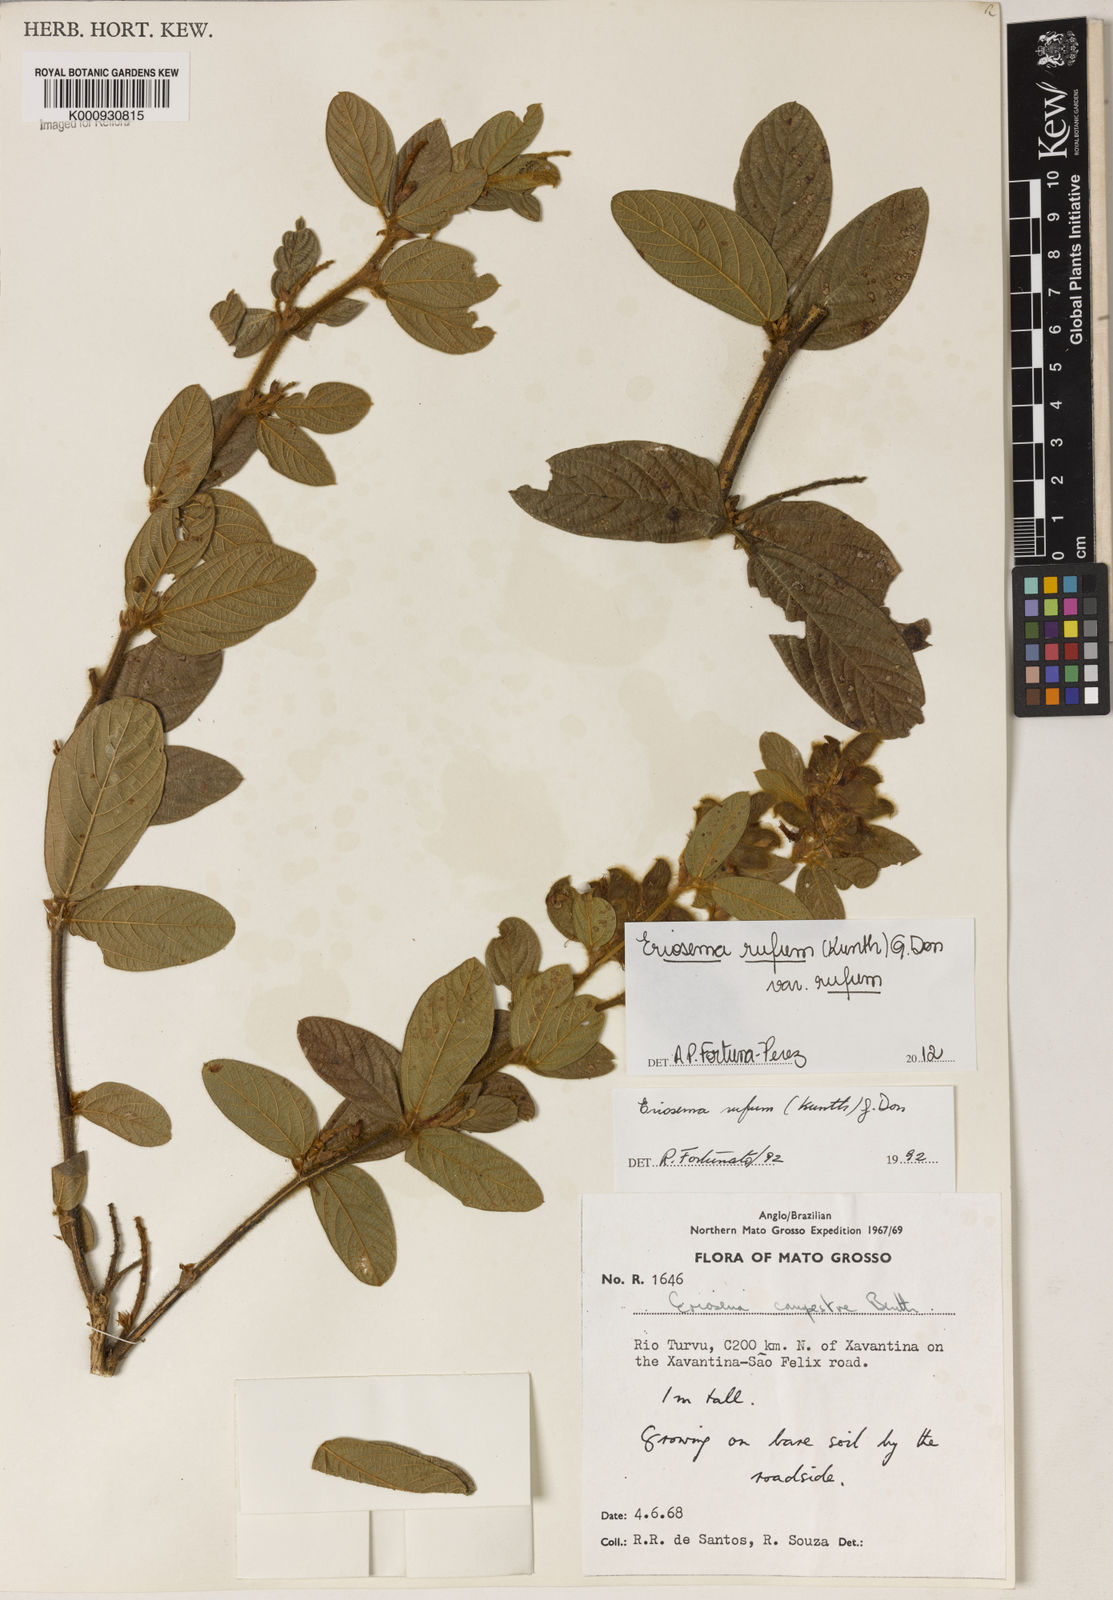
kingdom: Plantae
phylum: Tracheophyta
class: Magnoliopsida
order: Fabales
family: Fabaceae
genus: Eriosema
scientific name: Eriosema rufum
